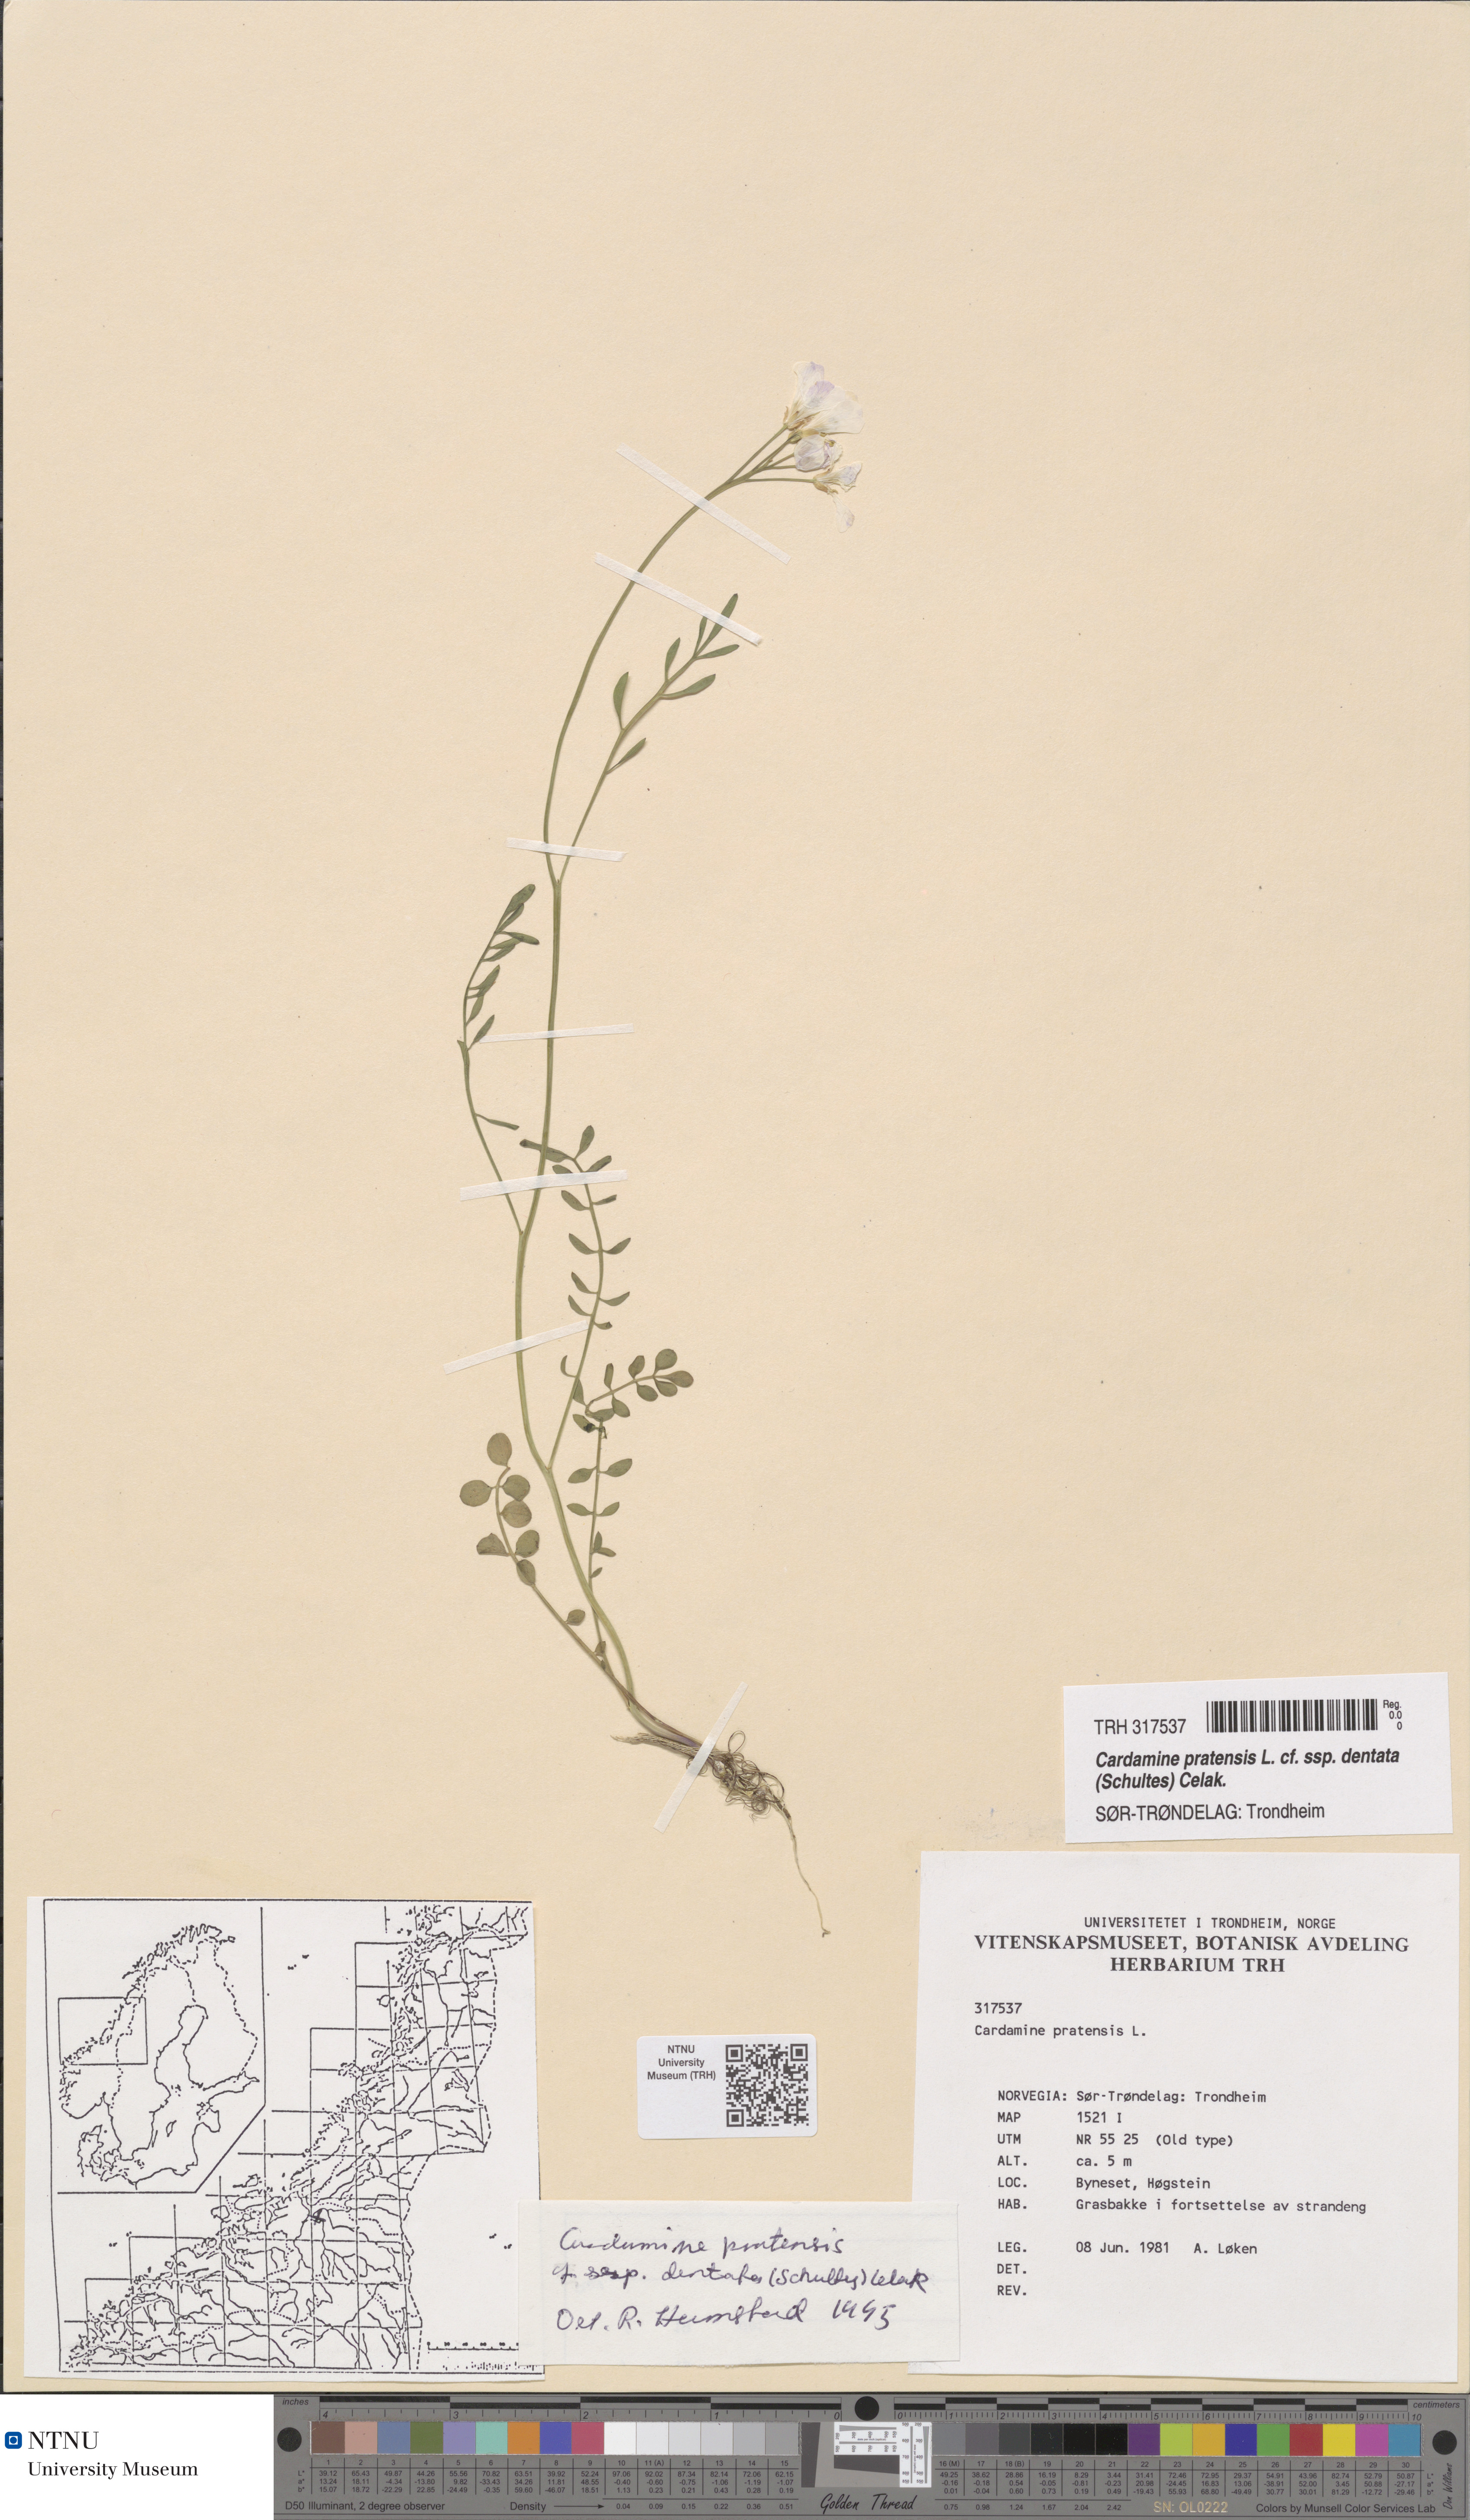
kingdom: Plantae
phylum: Tracheophyta
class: Magnoliopsida
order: Brassicales
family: Brassicaceae
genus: Cardamine
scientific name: Cardamine dentata
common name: Toothed bittercress
